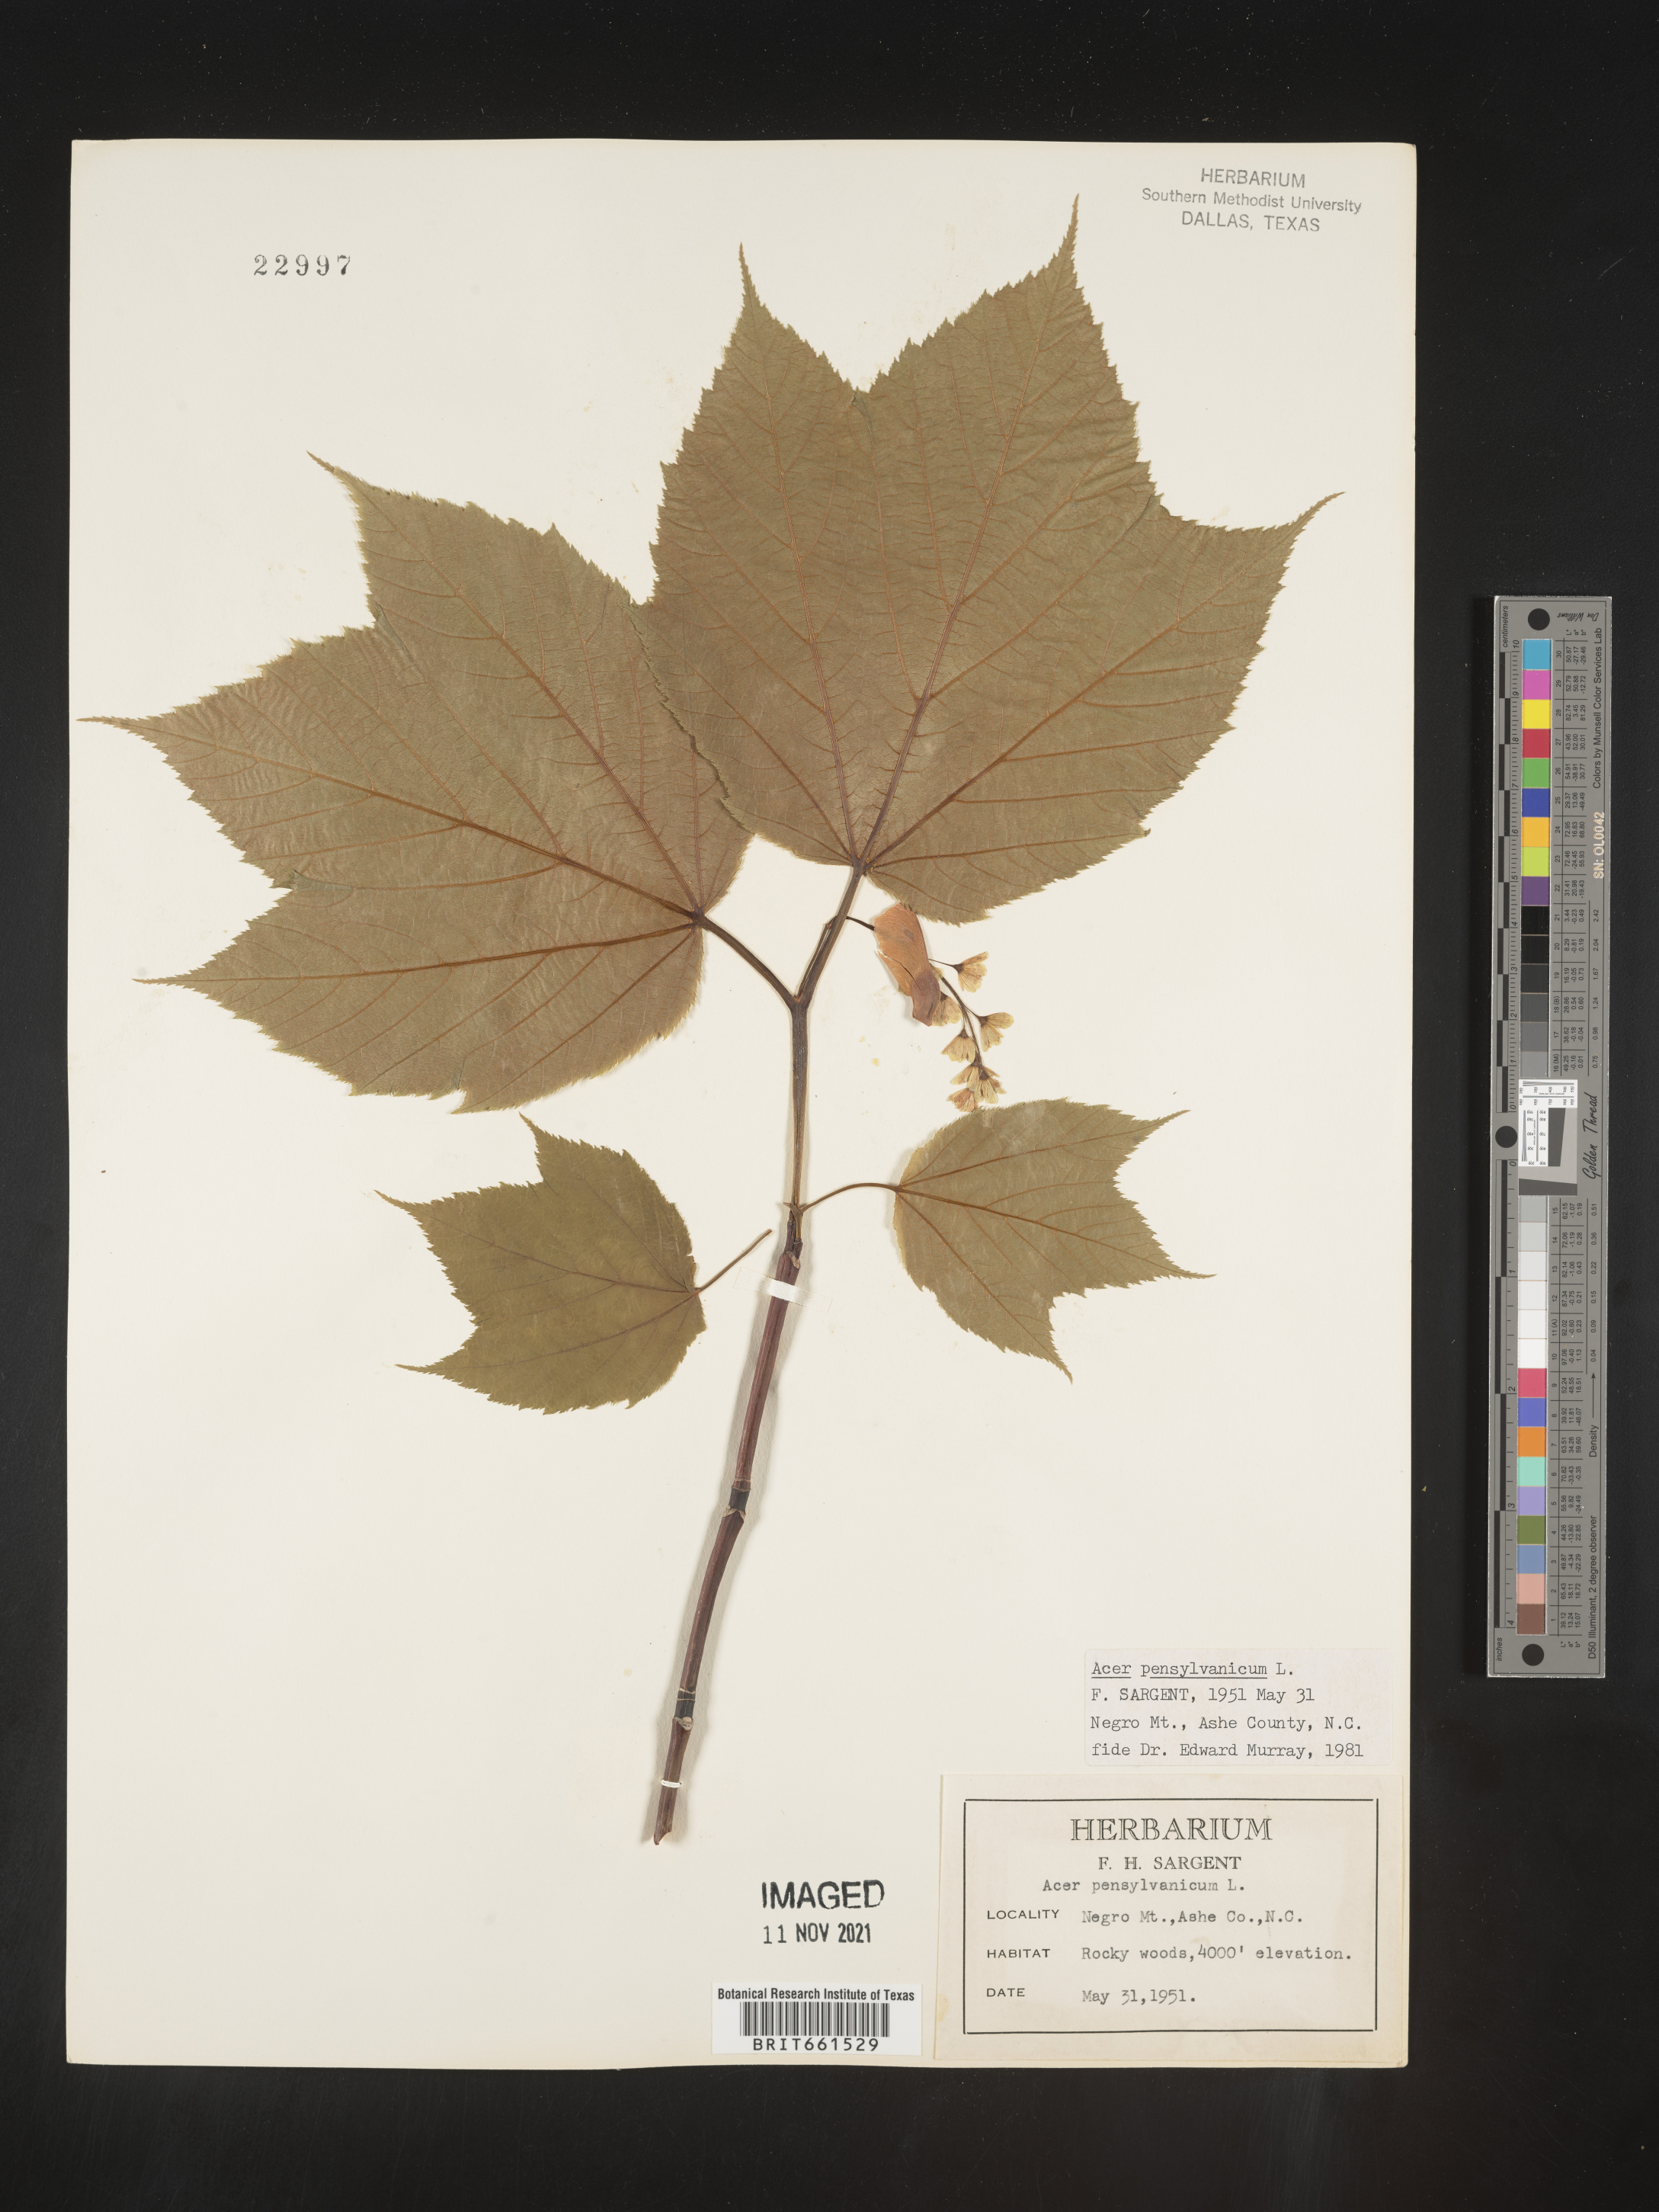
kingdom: Plantae
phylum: Tracheophyta
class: Magnoliopsida
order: Sapindales
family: Sapindaceae
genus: Acer
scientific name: Acer pensylvanicum
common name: Moosewood
